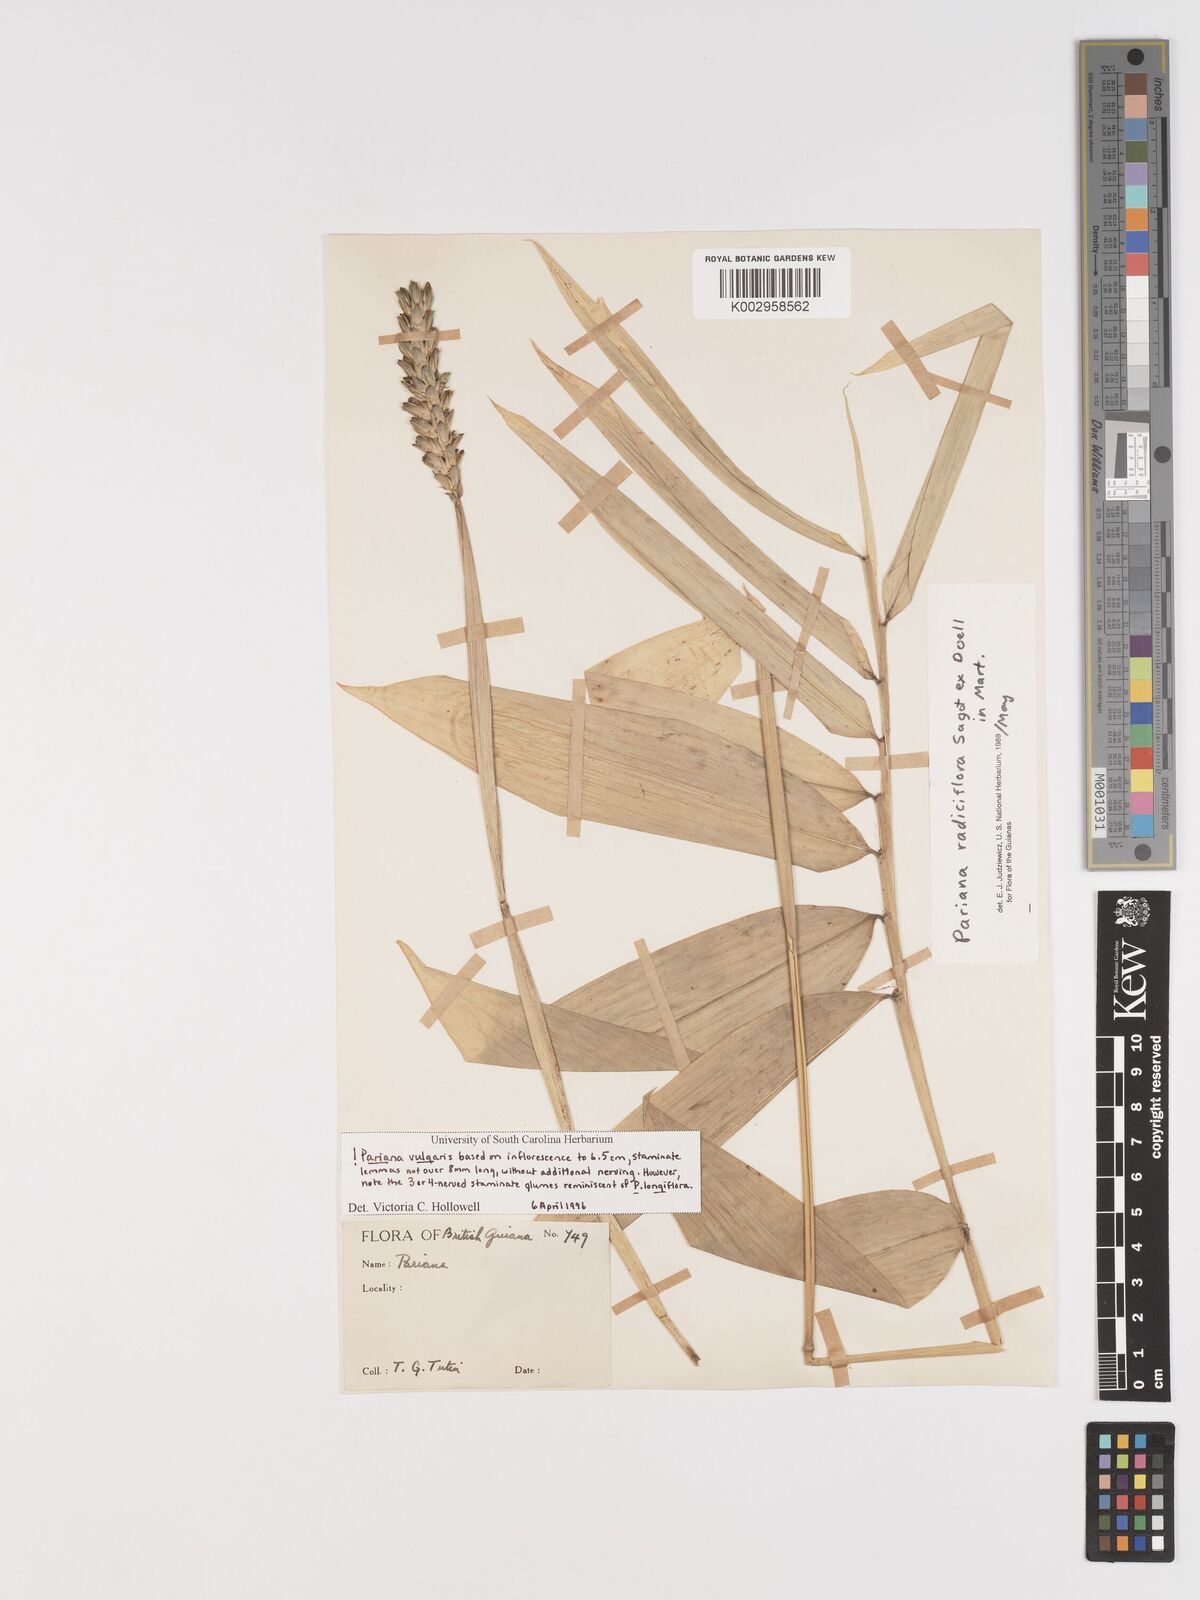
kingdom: Plantae
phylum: Tracheophyta
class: Liliopsida
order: Poales
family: Poaceae
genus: Pariana
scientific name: Pariana radiciflora
